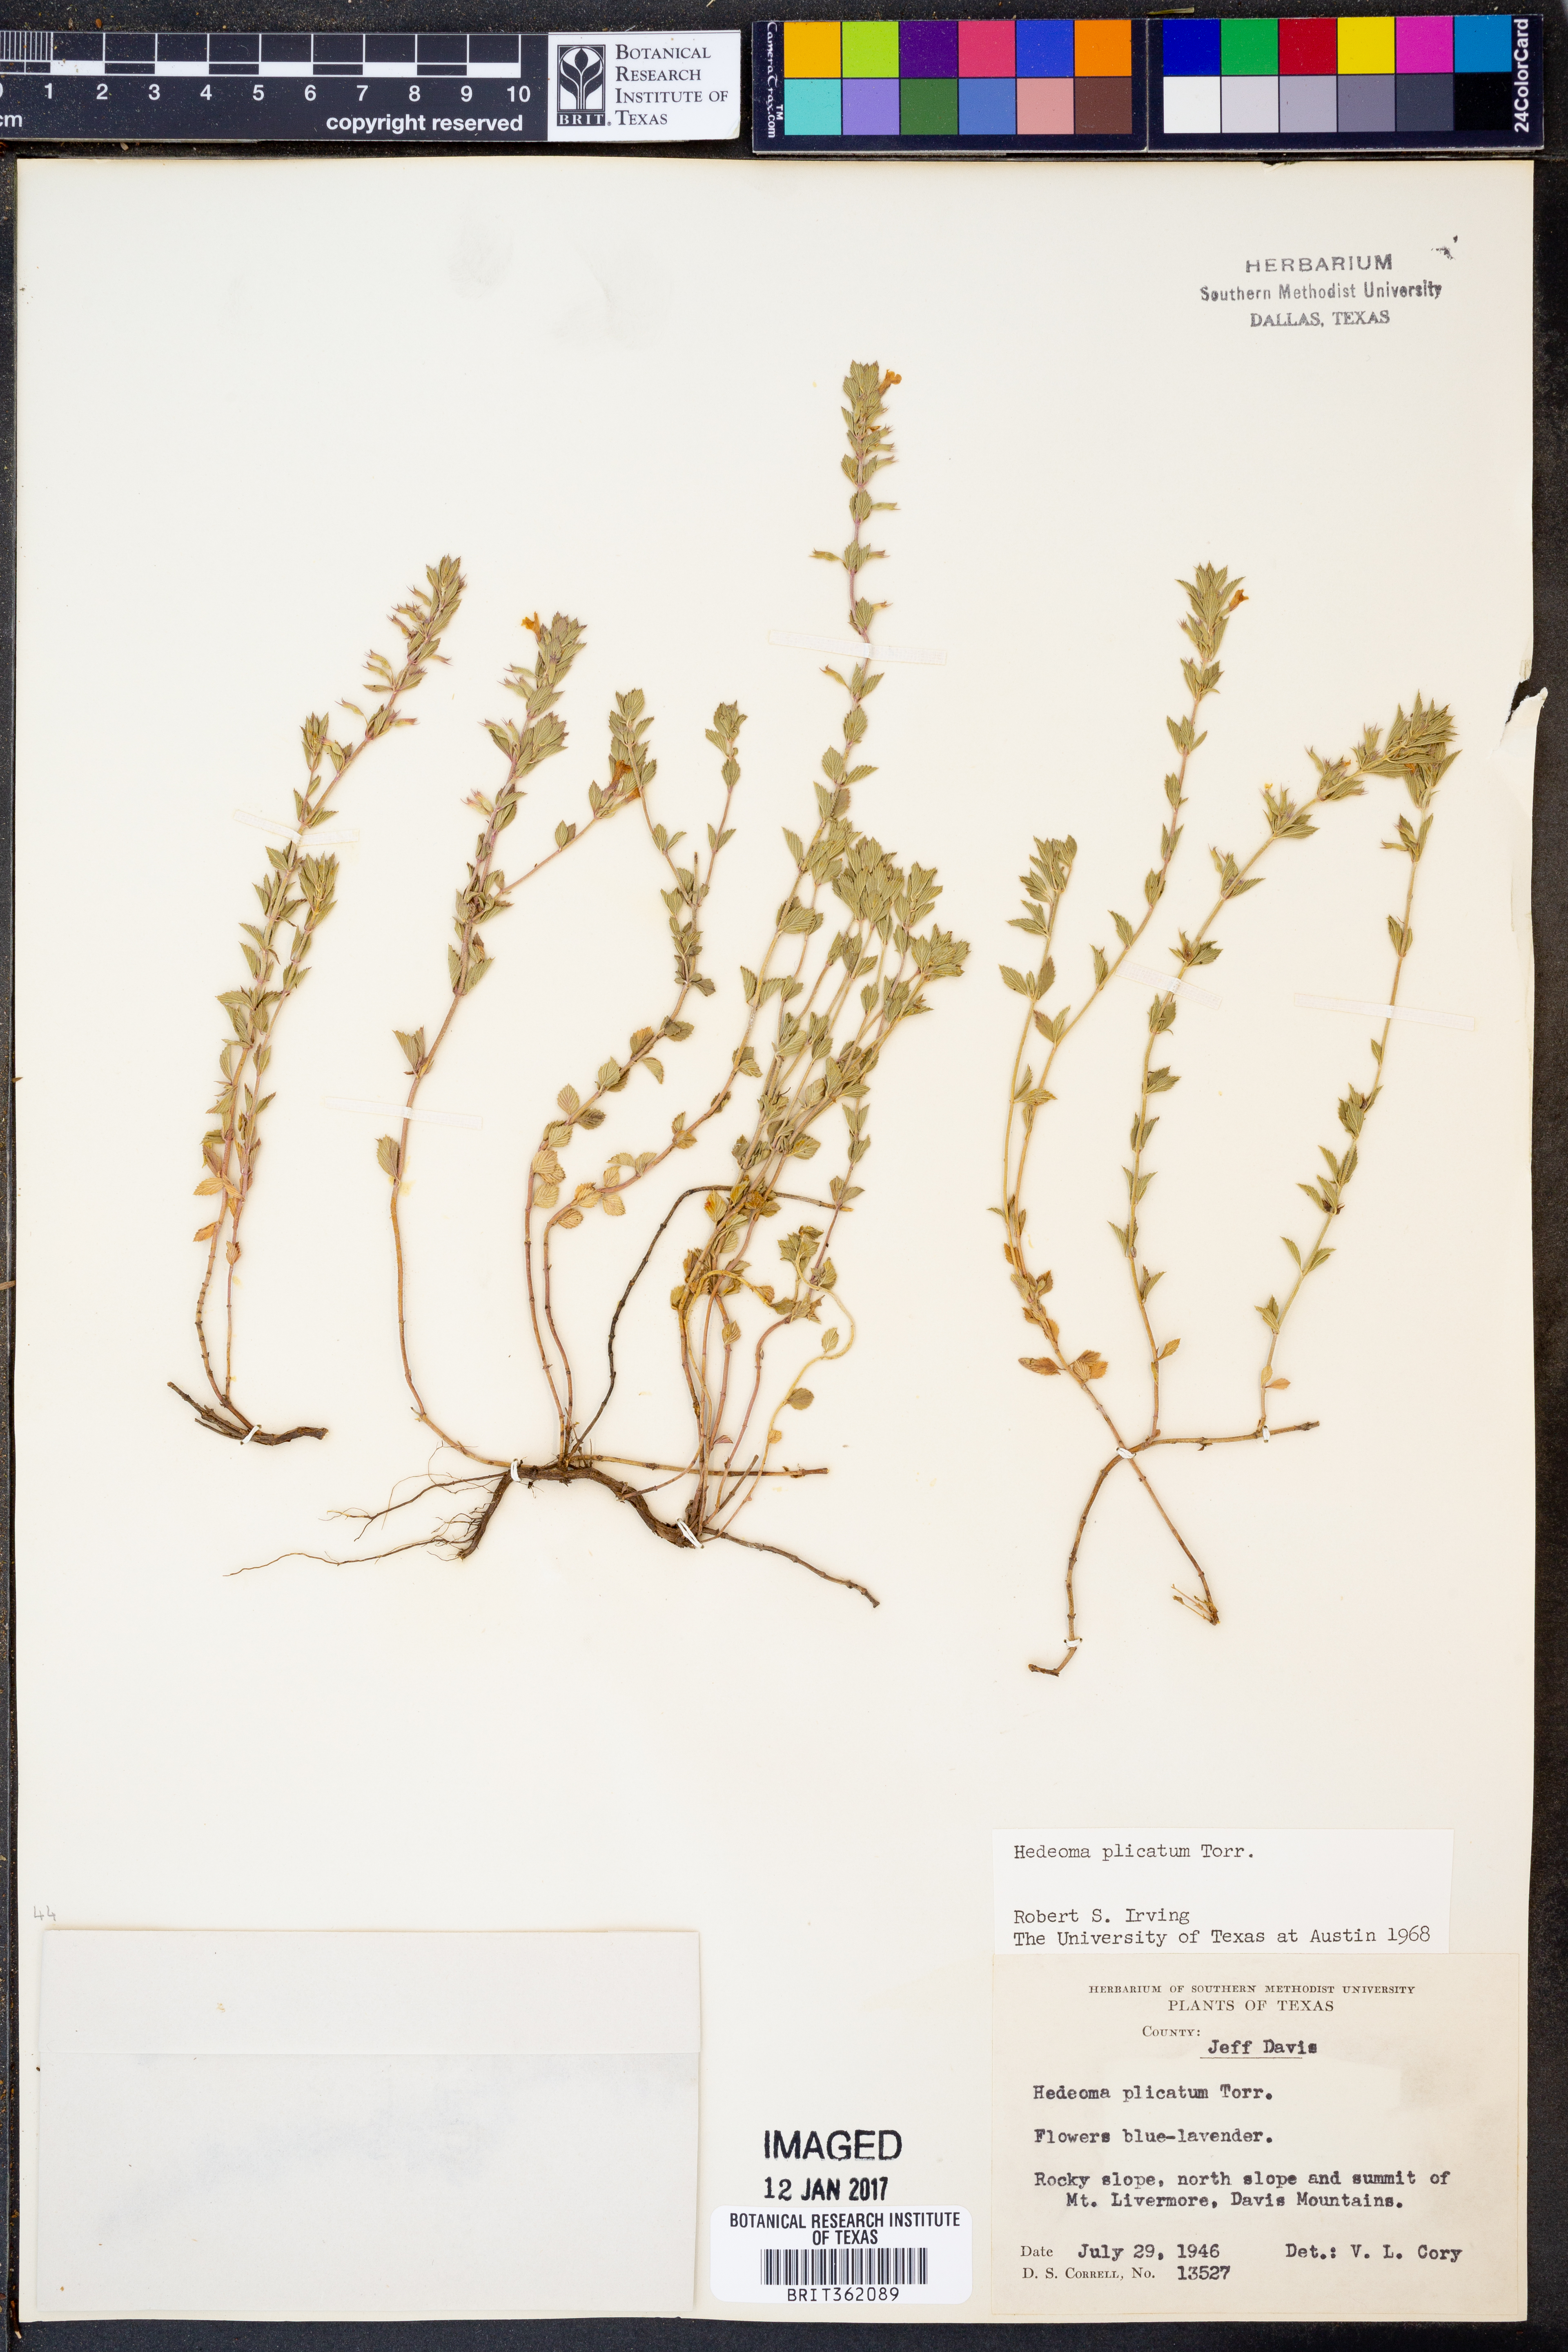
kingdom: Plantae
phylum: Tracheophyta
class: Magnoliopsida
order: Lamiales
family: Lamiaceae
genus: Hedeoma
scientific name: Hedeoma plicata
